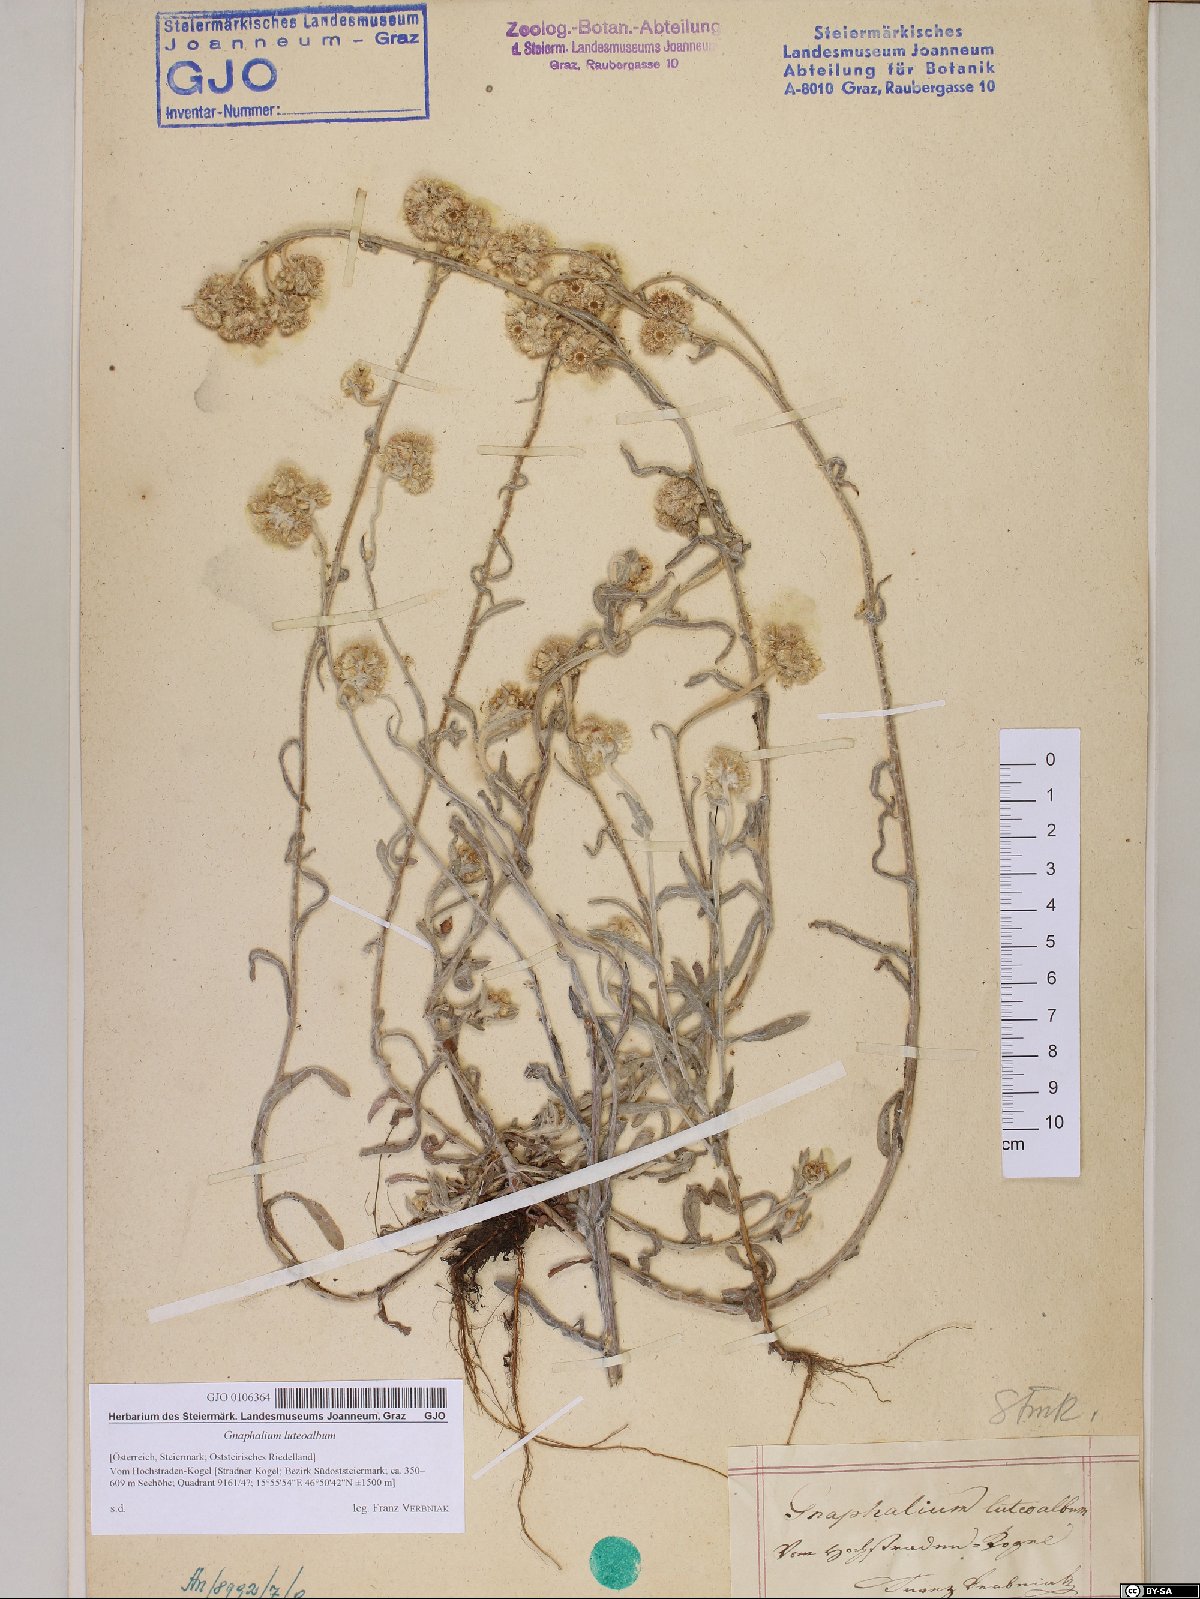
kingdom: Plantae
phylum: Tracheophyta
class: Magnoliopsida
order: Asterales
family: Asteraceae
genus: Helichrysum
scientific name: Helichrysum luteoalbum
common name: Daisy
